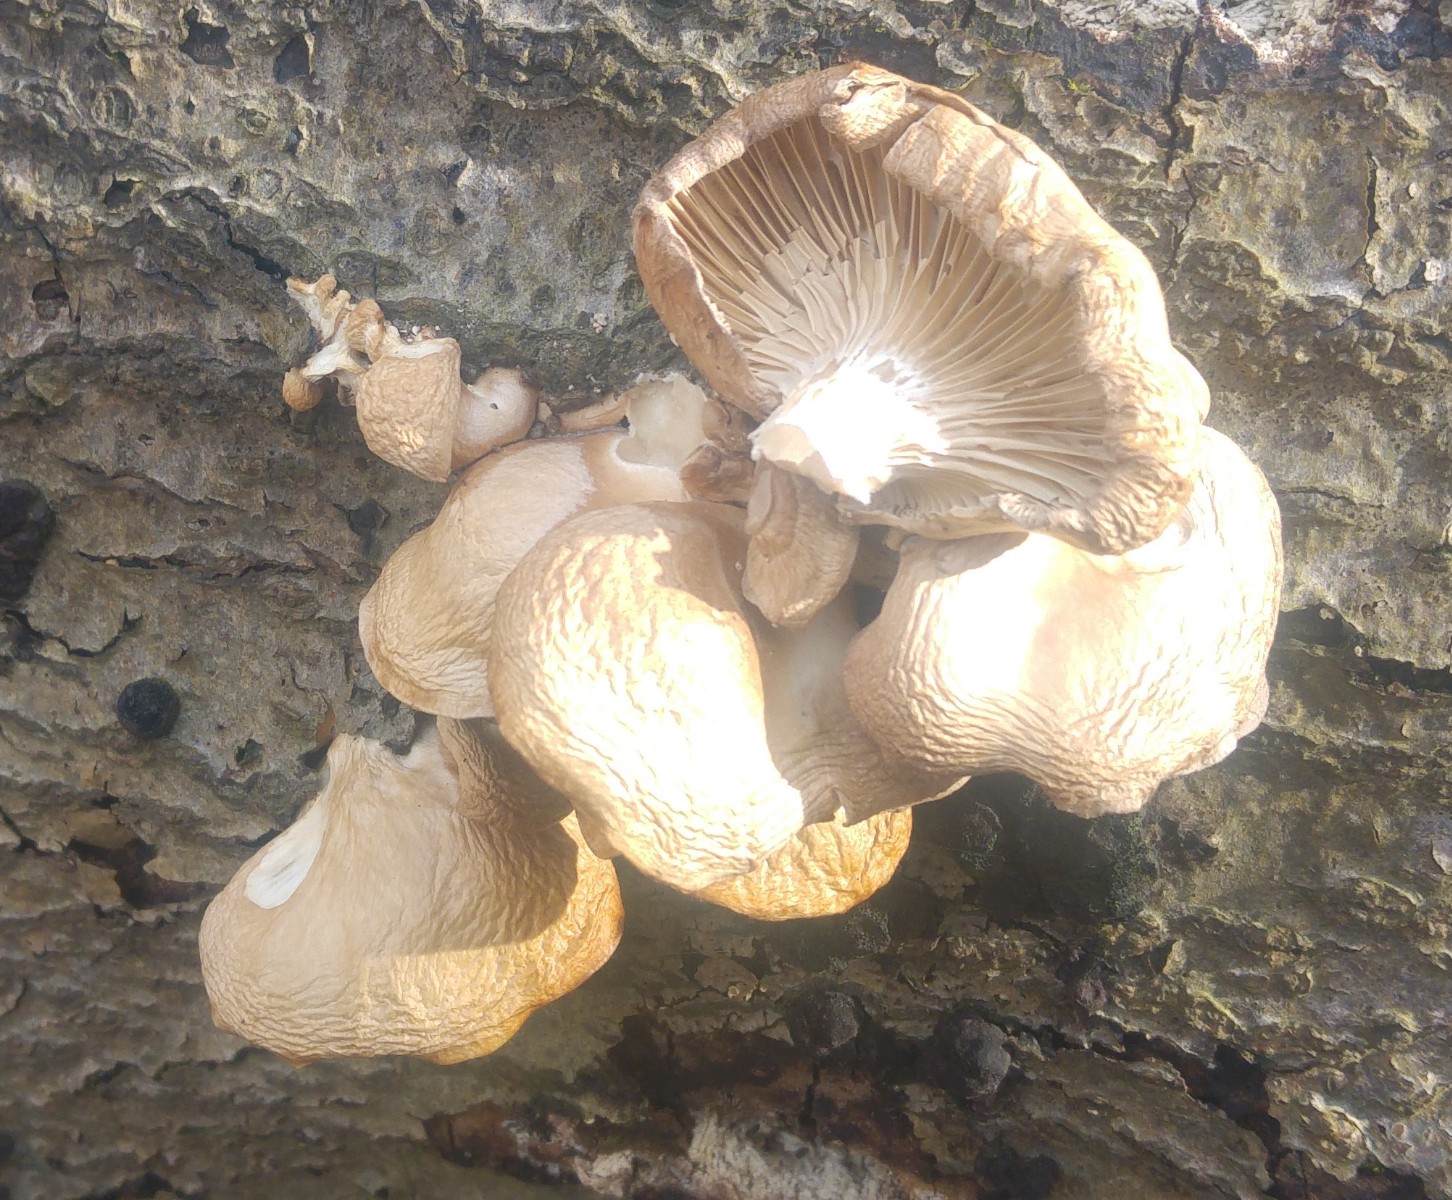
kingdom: Fungi
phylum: Basidiomycota
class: Agaricomycetes
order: Agaricales
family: Pleurotaceae
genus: Pleurotus
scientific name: Pleurotus ostreatus
